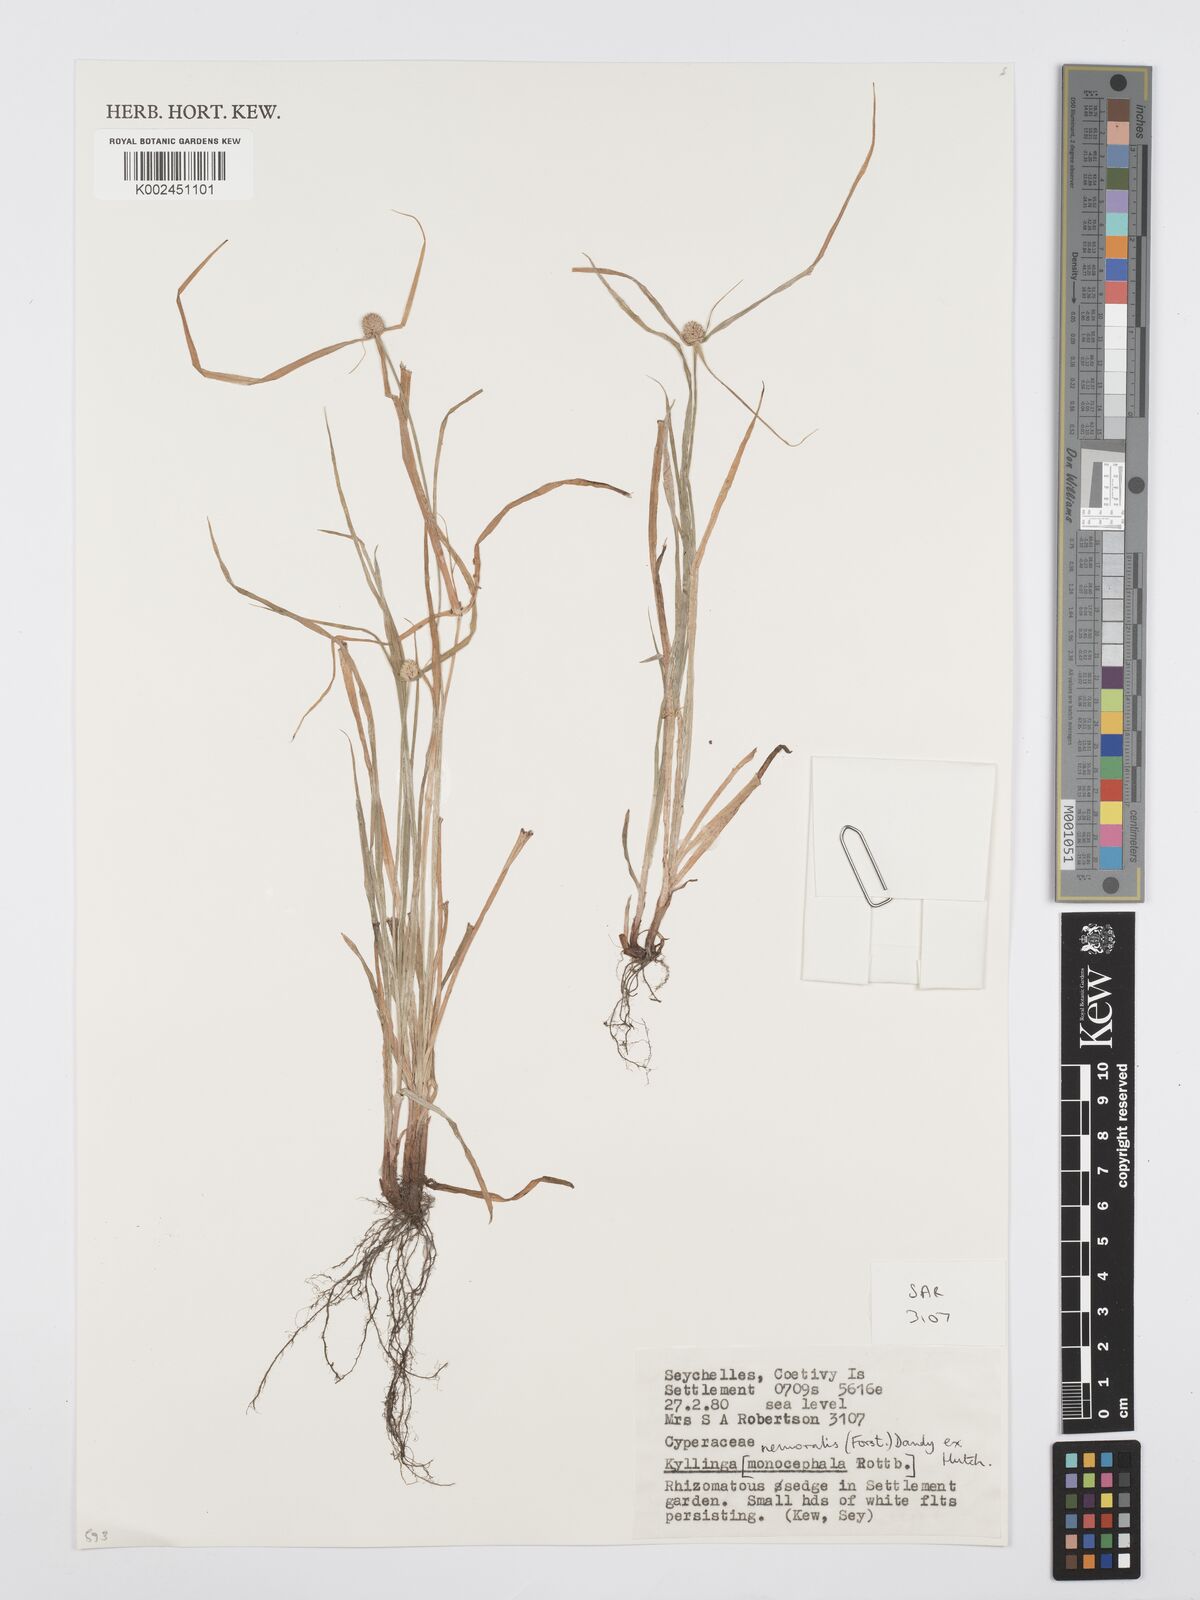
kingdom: Plantae
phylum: Tracheophyta
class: Liliopsida
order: Poales
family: Cyperaceae
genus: Cyperus
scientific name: Cyperus nemoralis
